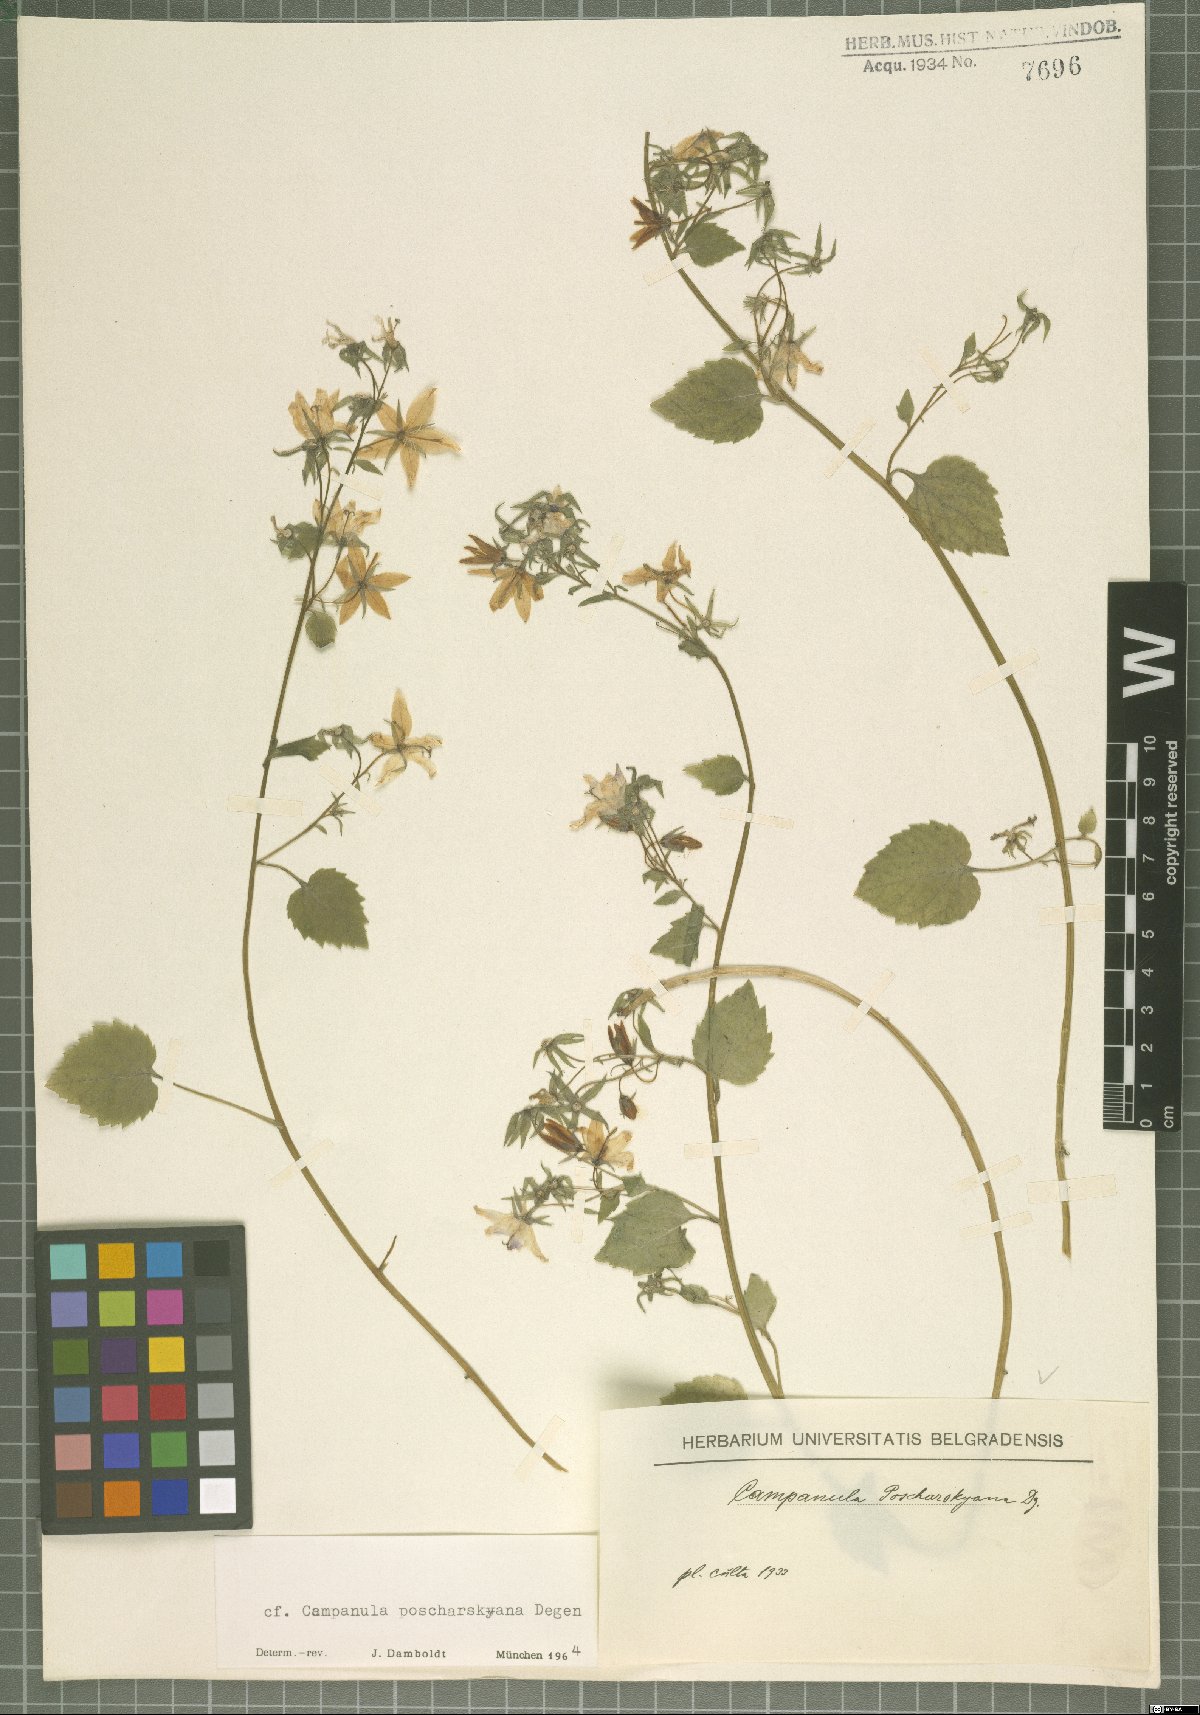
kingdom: Plantae
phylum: Tracheophyta
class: Magnoliopsida
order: Asterales
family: Campanulaceae
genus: Campanula
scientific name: Campanula poscharskyana
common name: Trailing bellflower
